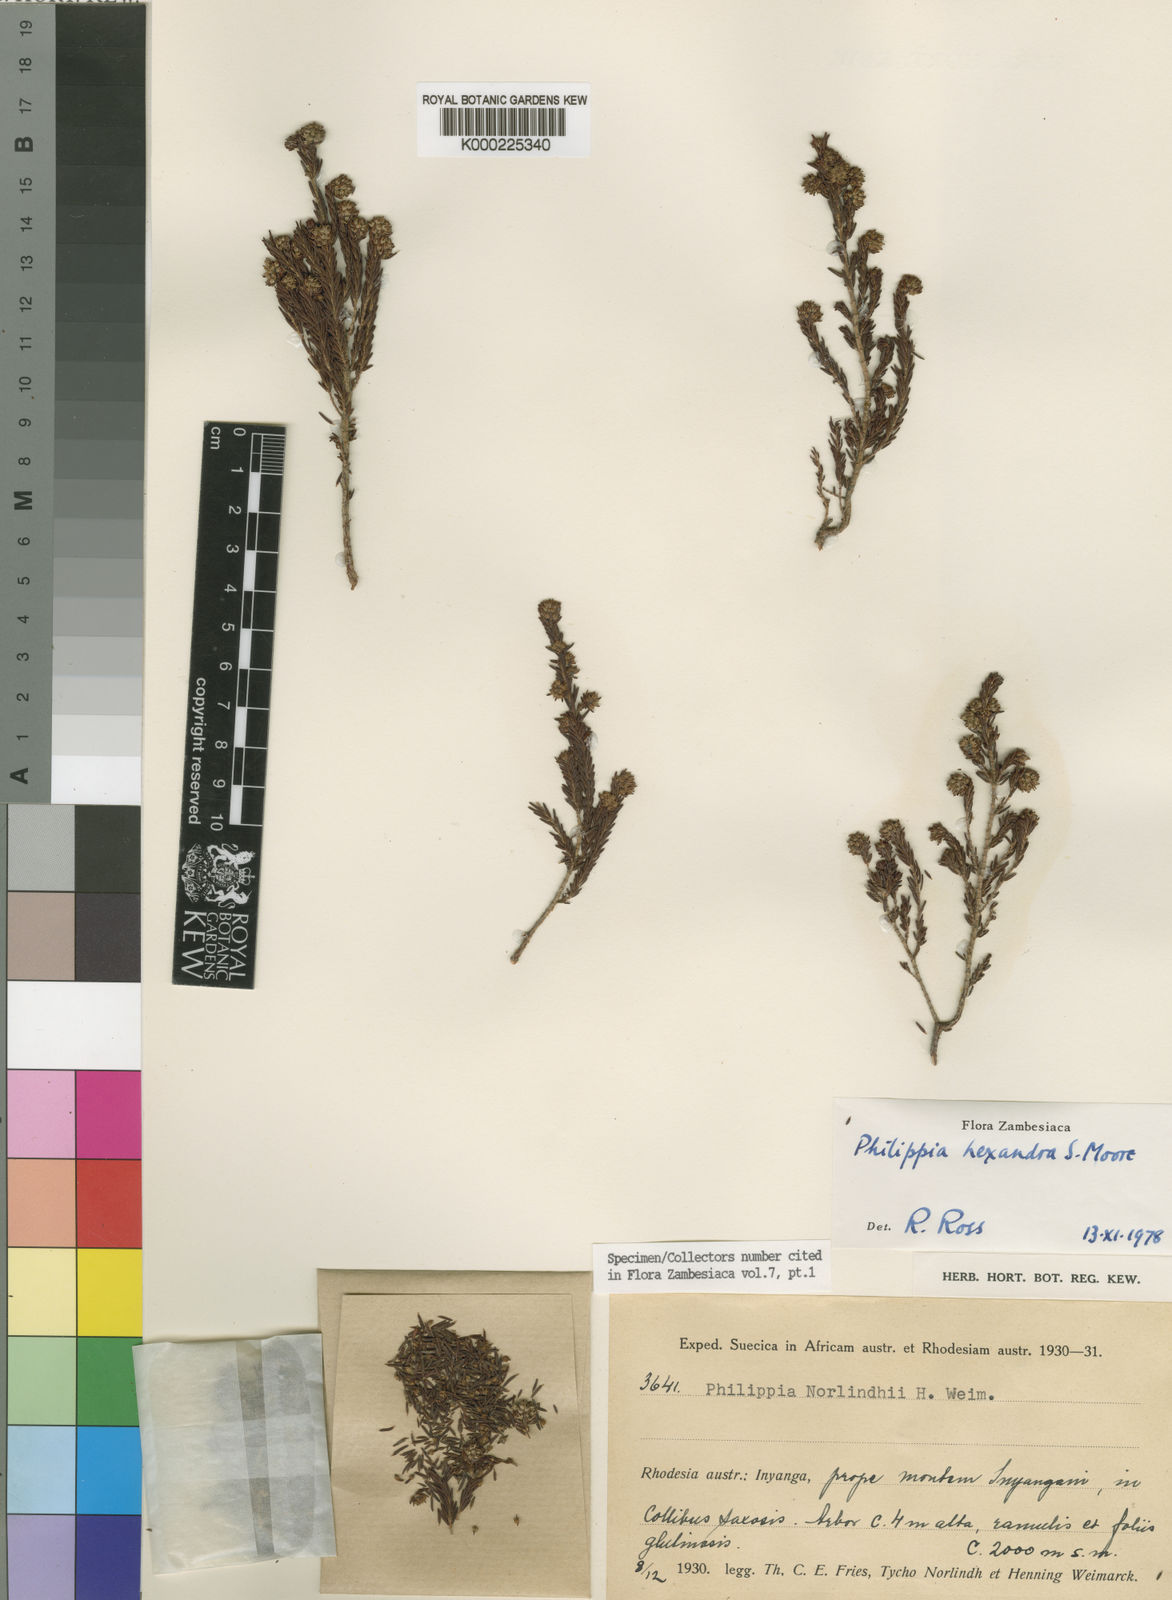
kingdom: Plantae
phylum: Tracheophyta
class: Magnoliopsida
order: Ericales
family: Ericaceae
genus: Erica
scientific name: Erica hexandra
